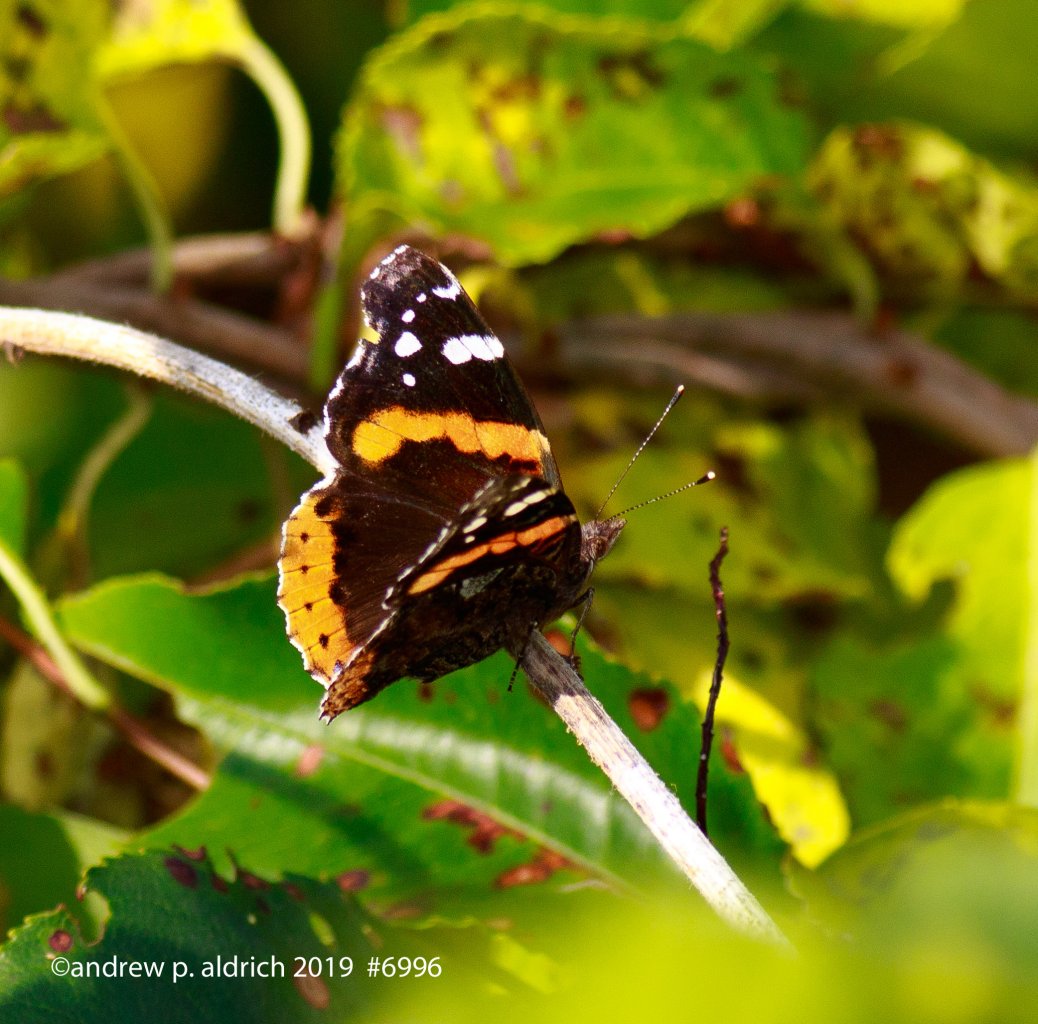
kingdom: Animalia
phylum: Arthropoda
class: Insecta
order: Lepidoptera
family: Nymphalidae
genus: Vanessa
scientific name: Vanessa atalanta
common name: Red Admiral
